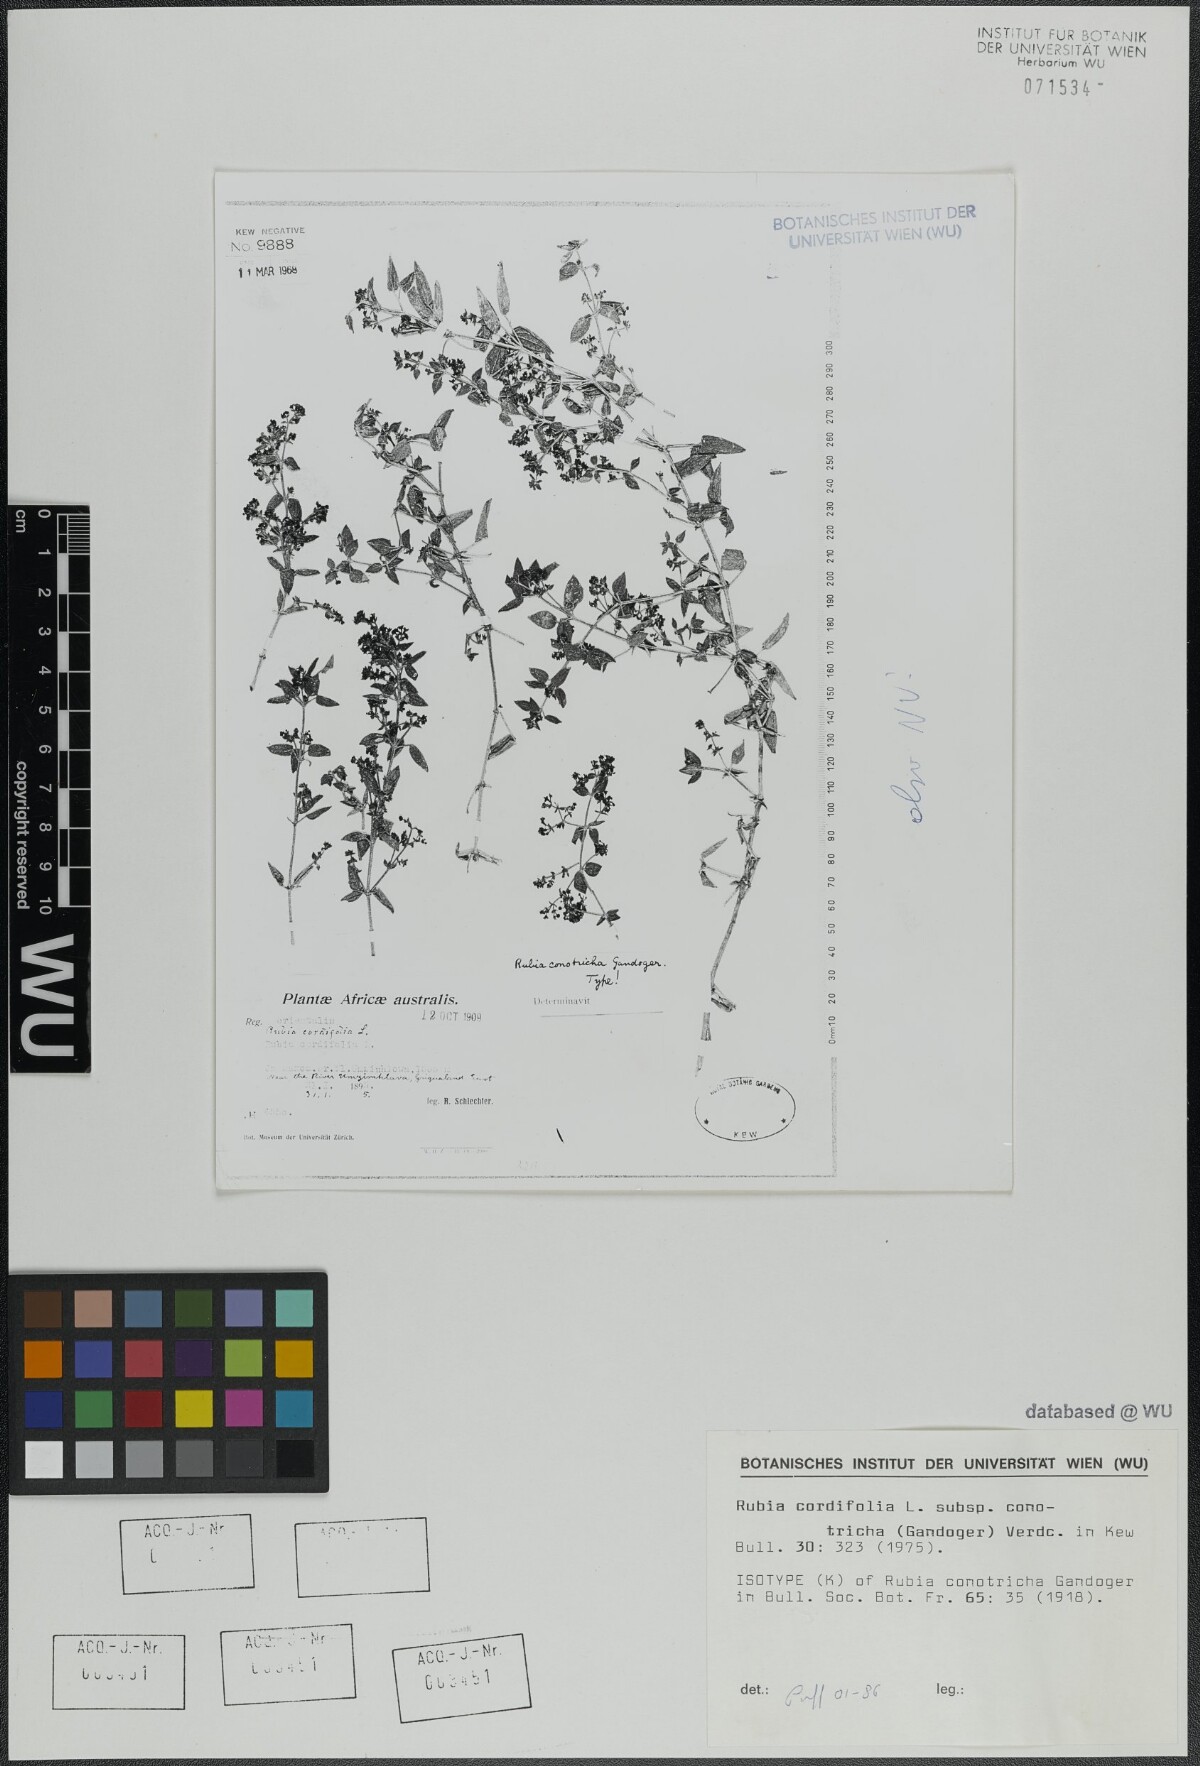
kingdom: Plantae
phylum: Tracheophyta
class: Magnoliopsida
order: Gentianales
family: Rubiaceae
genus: Rubia
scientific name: Rubia cordifolia
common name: Indian madder
